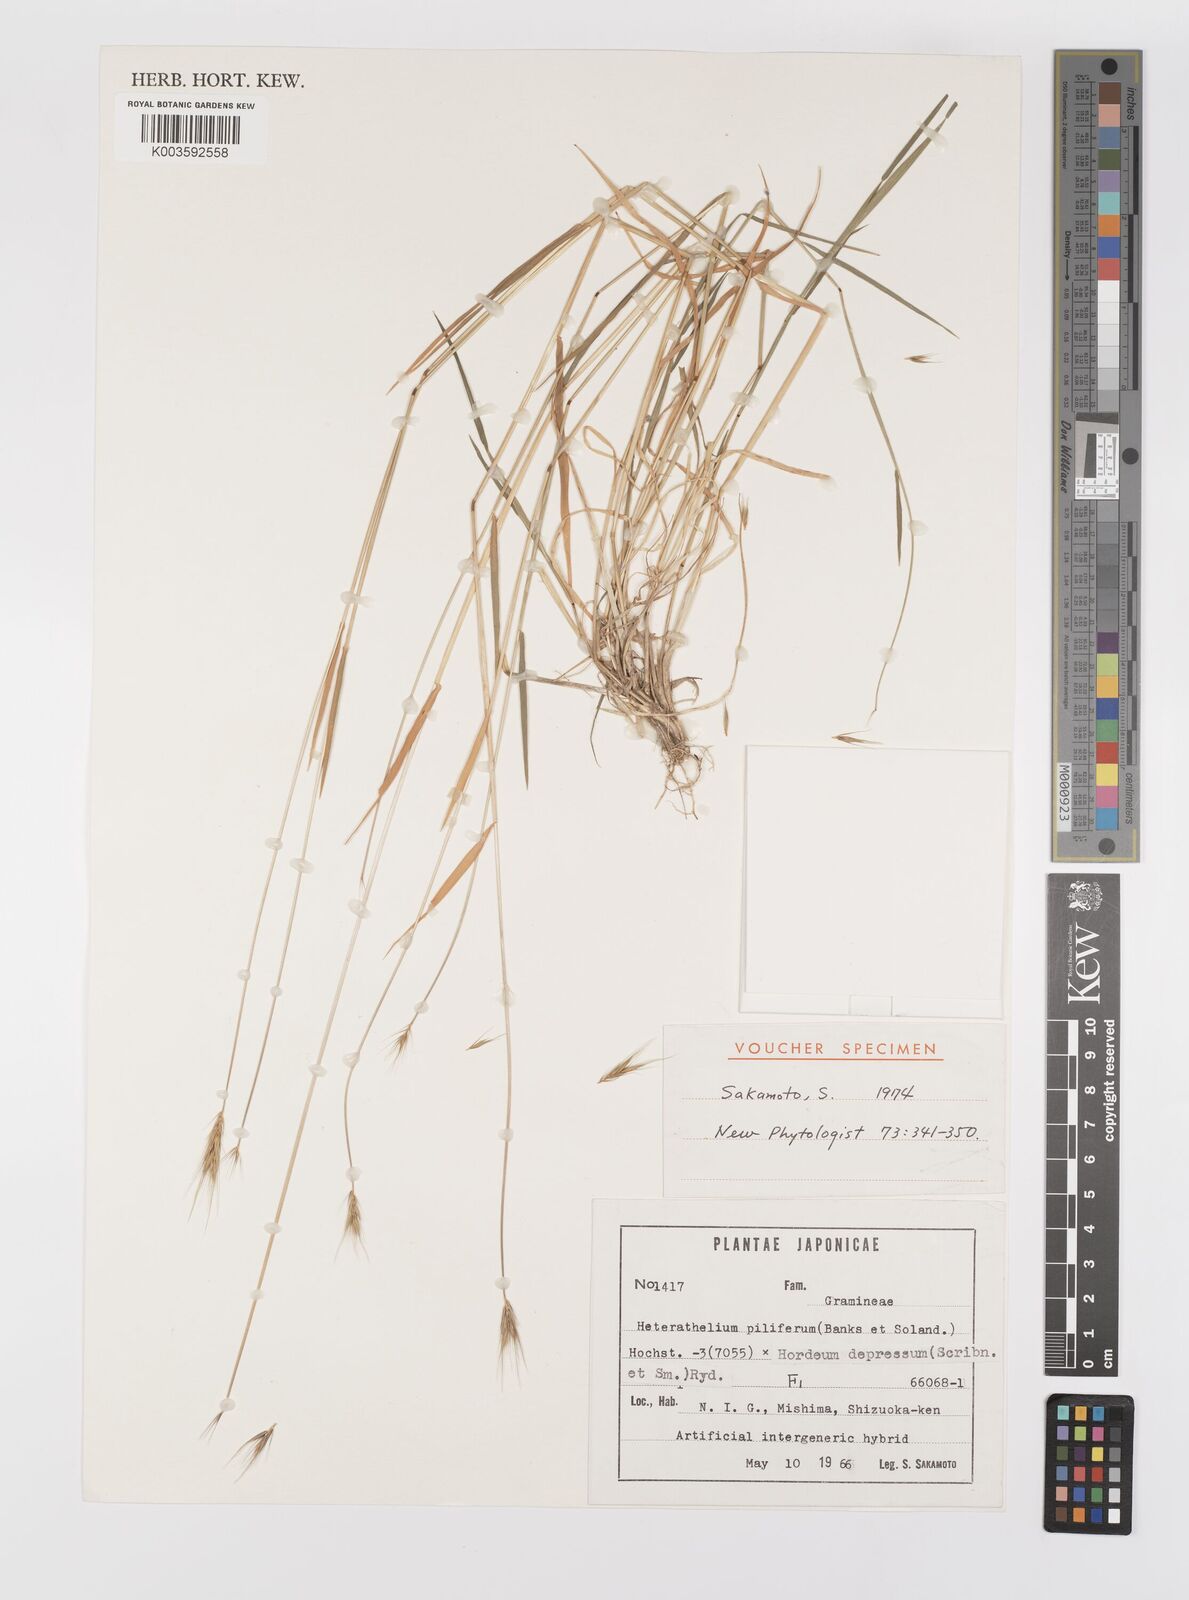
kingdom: Plantae
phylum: Tracheophyta
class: Liliopsida
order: Poales
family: Poaceae
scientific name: Poaceae
